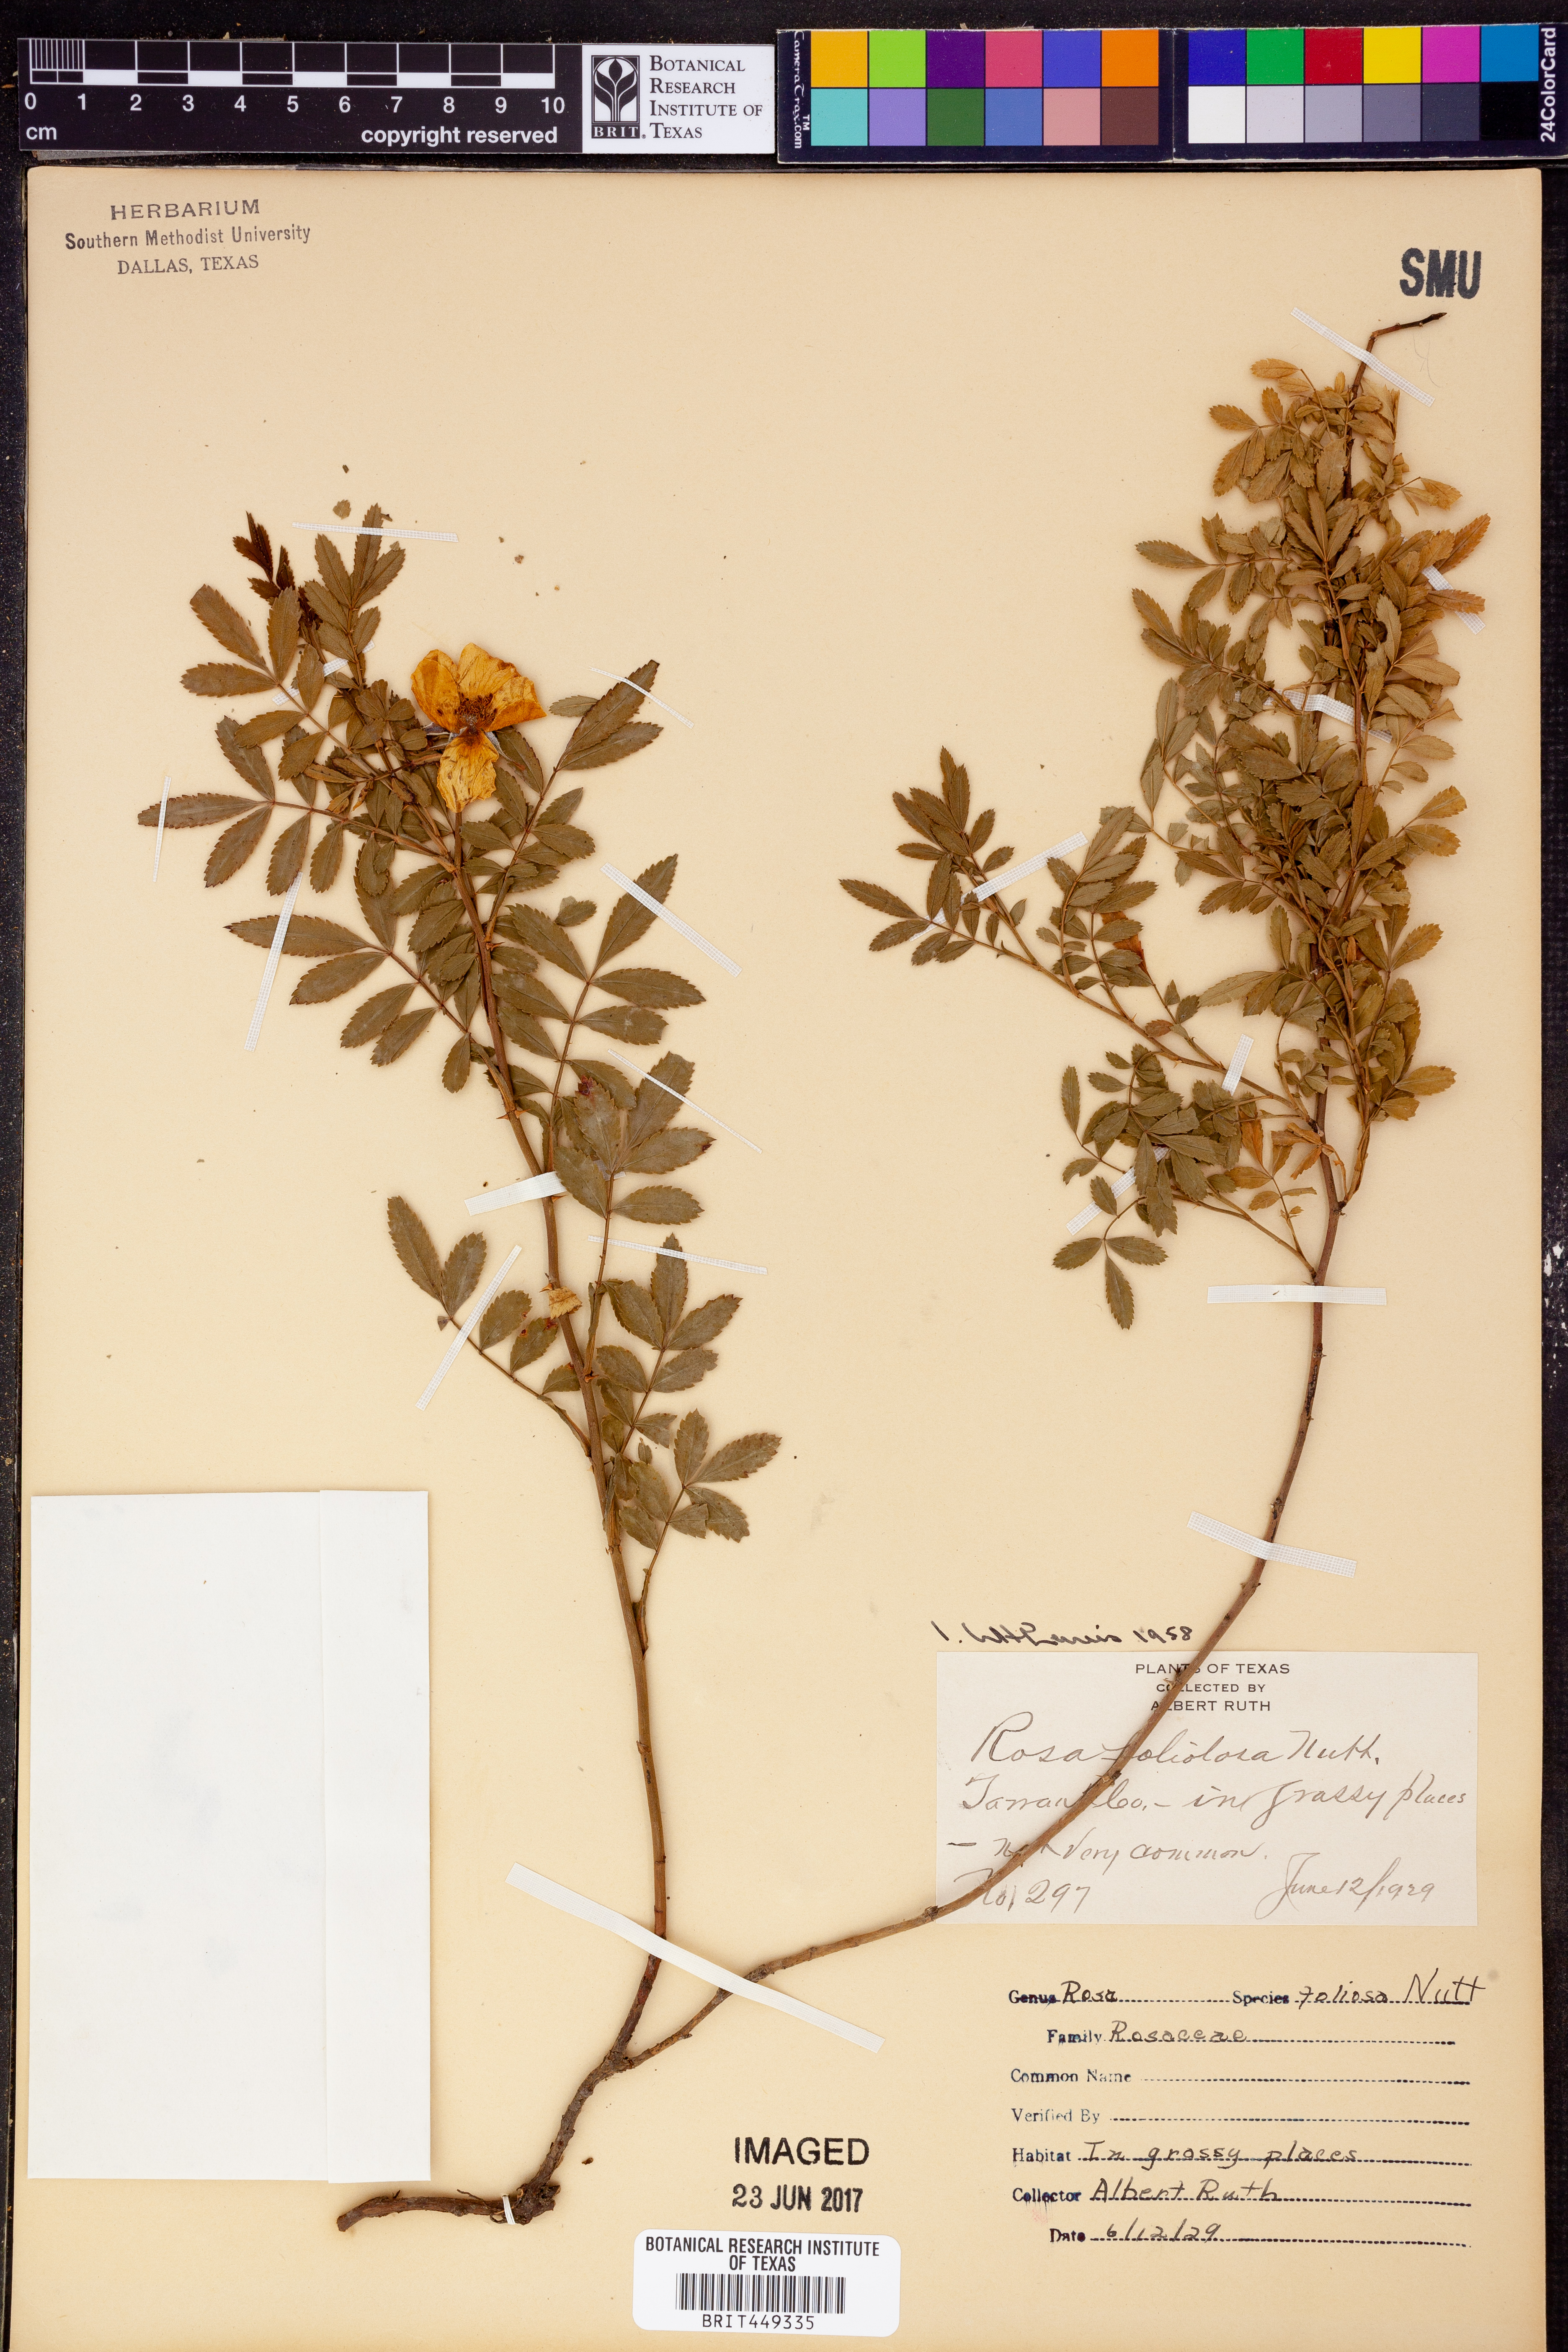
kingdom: Plantae
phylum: Tracheophyta
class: Magnoliopsida
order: Rosales
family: Rosaceae
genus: Rosa
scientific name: Rosa foliolosa
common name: White prairie rose
